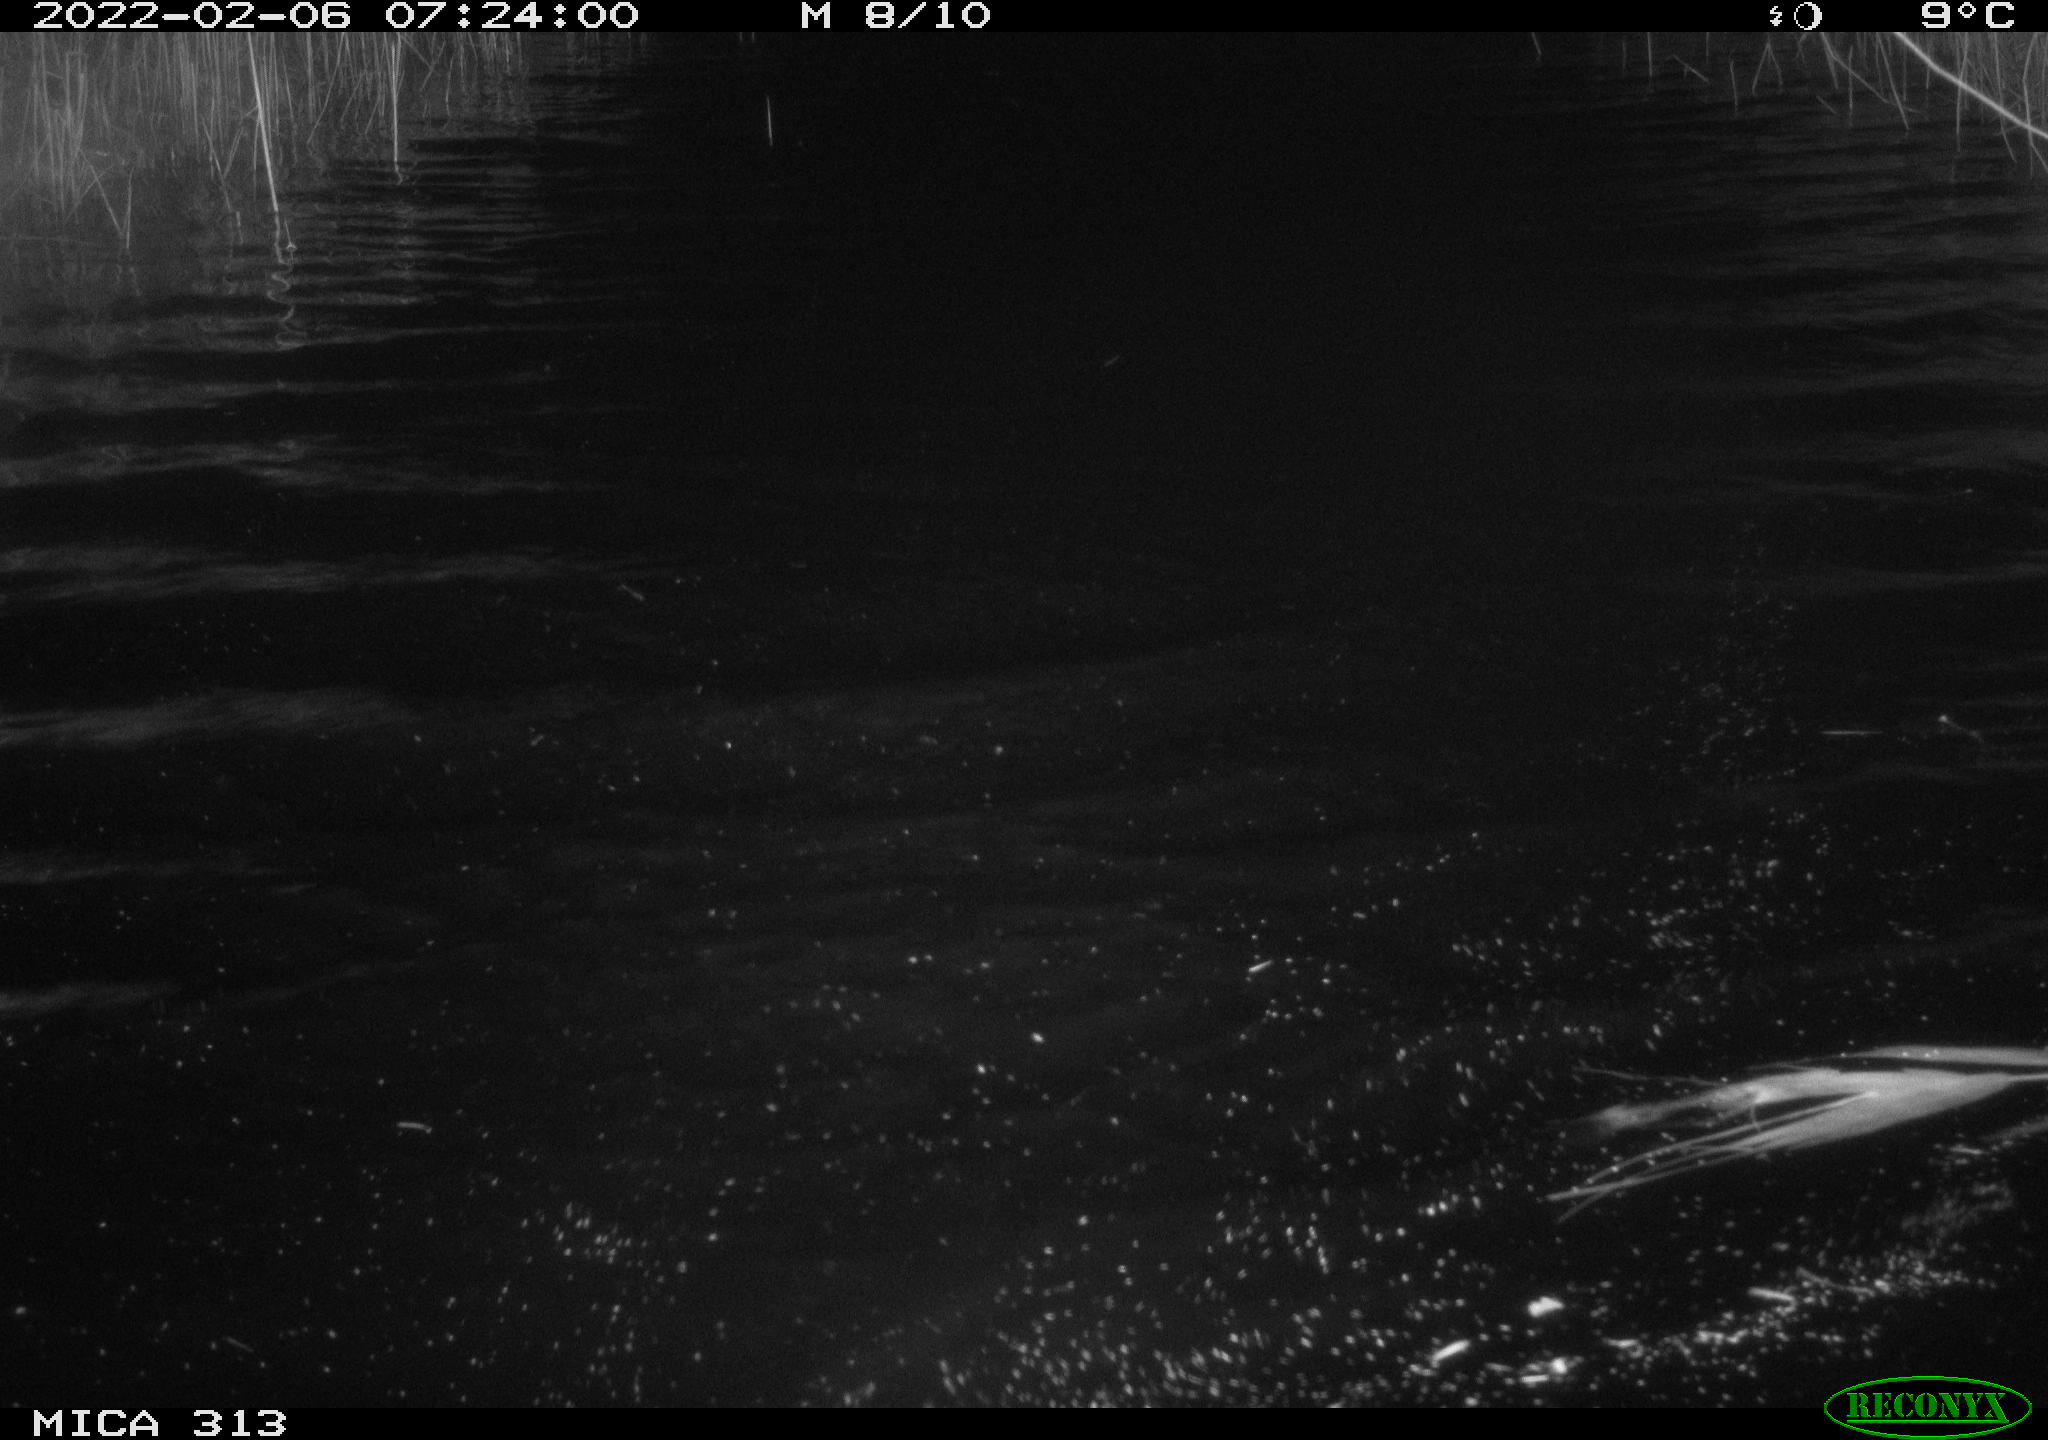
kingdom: Animalia
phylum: Chordata
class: Aves
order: Gruiformes
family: Rallidae
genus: Gallinula
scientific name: Gallinula chloropus
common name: Common moorhen
